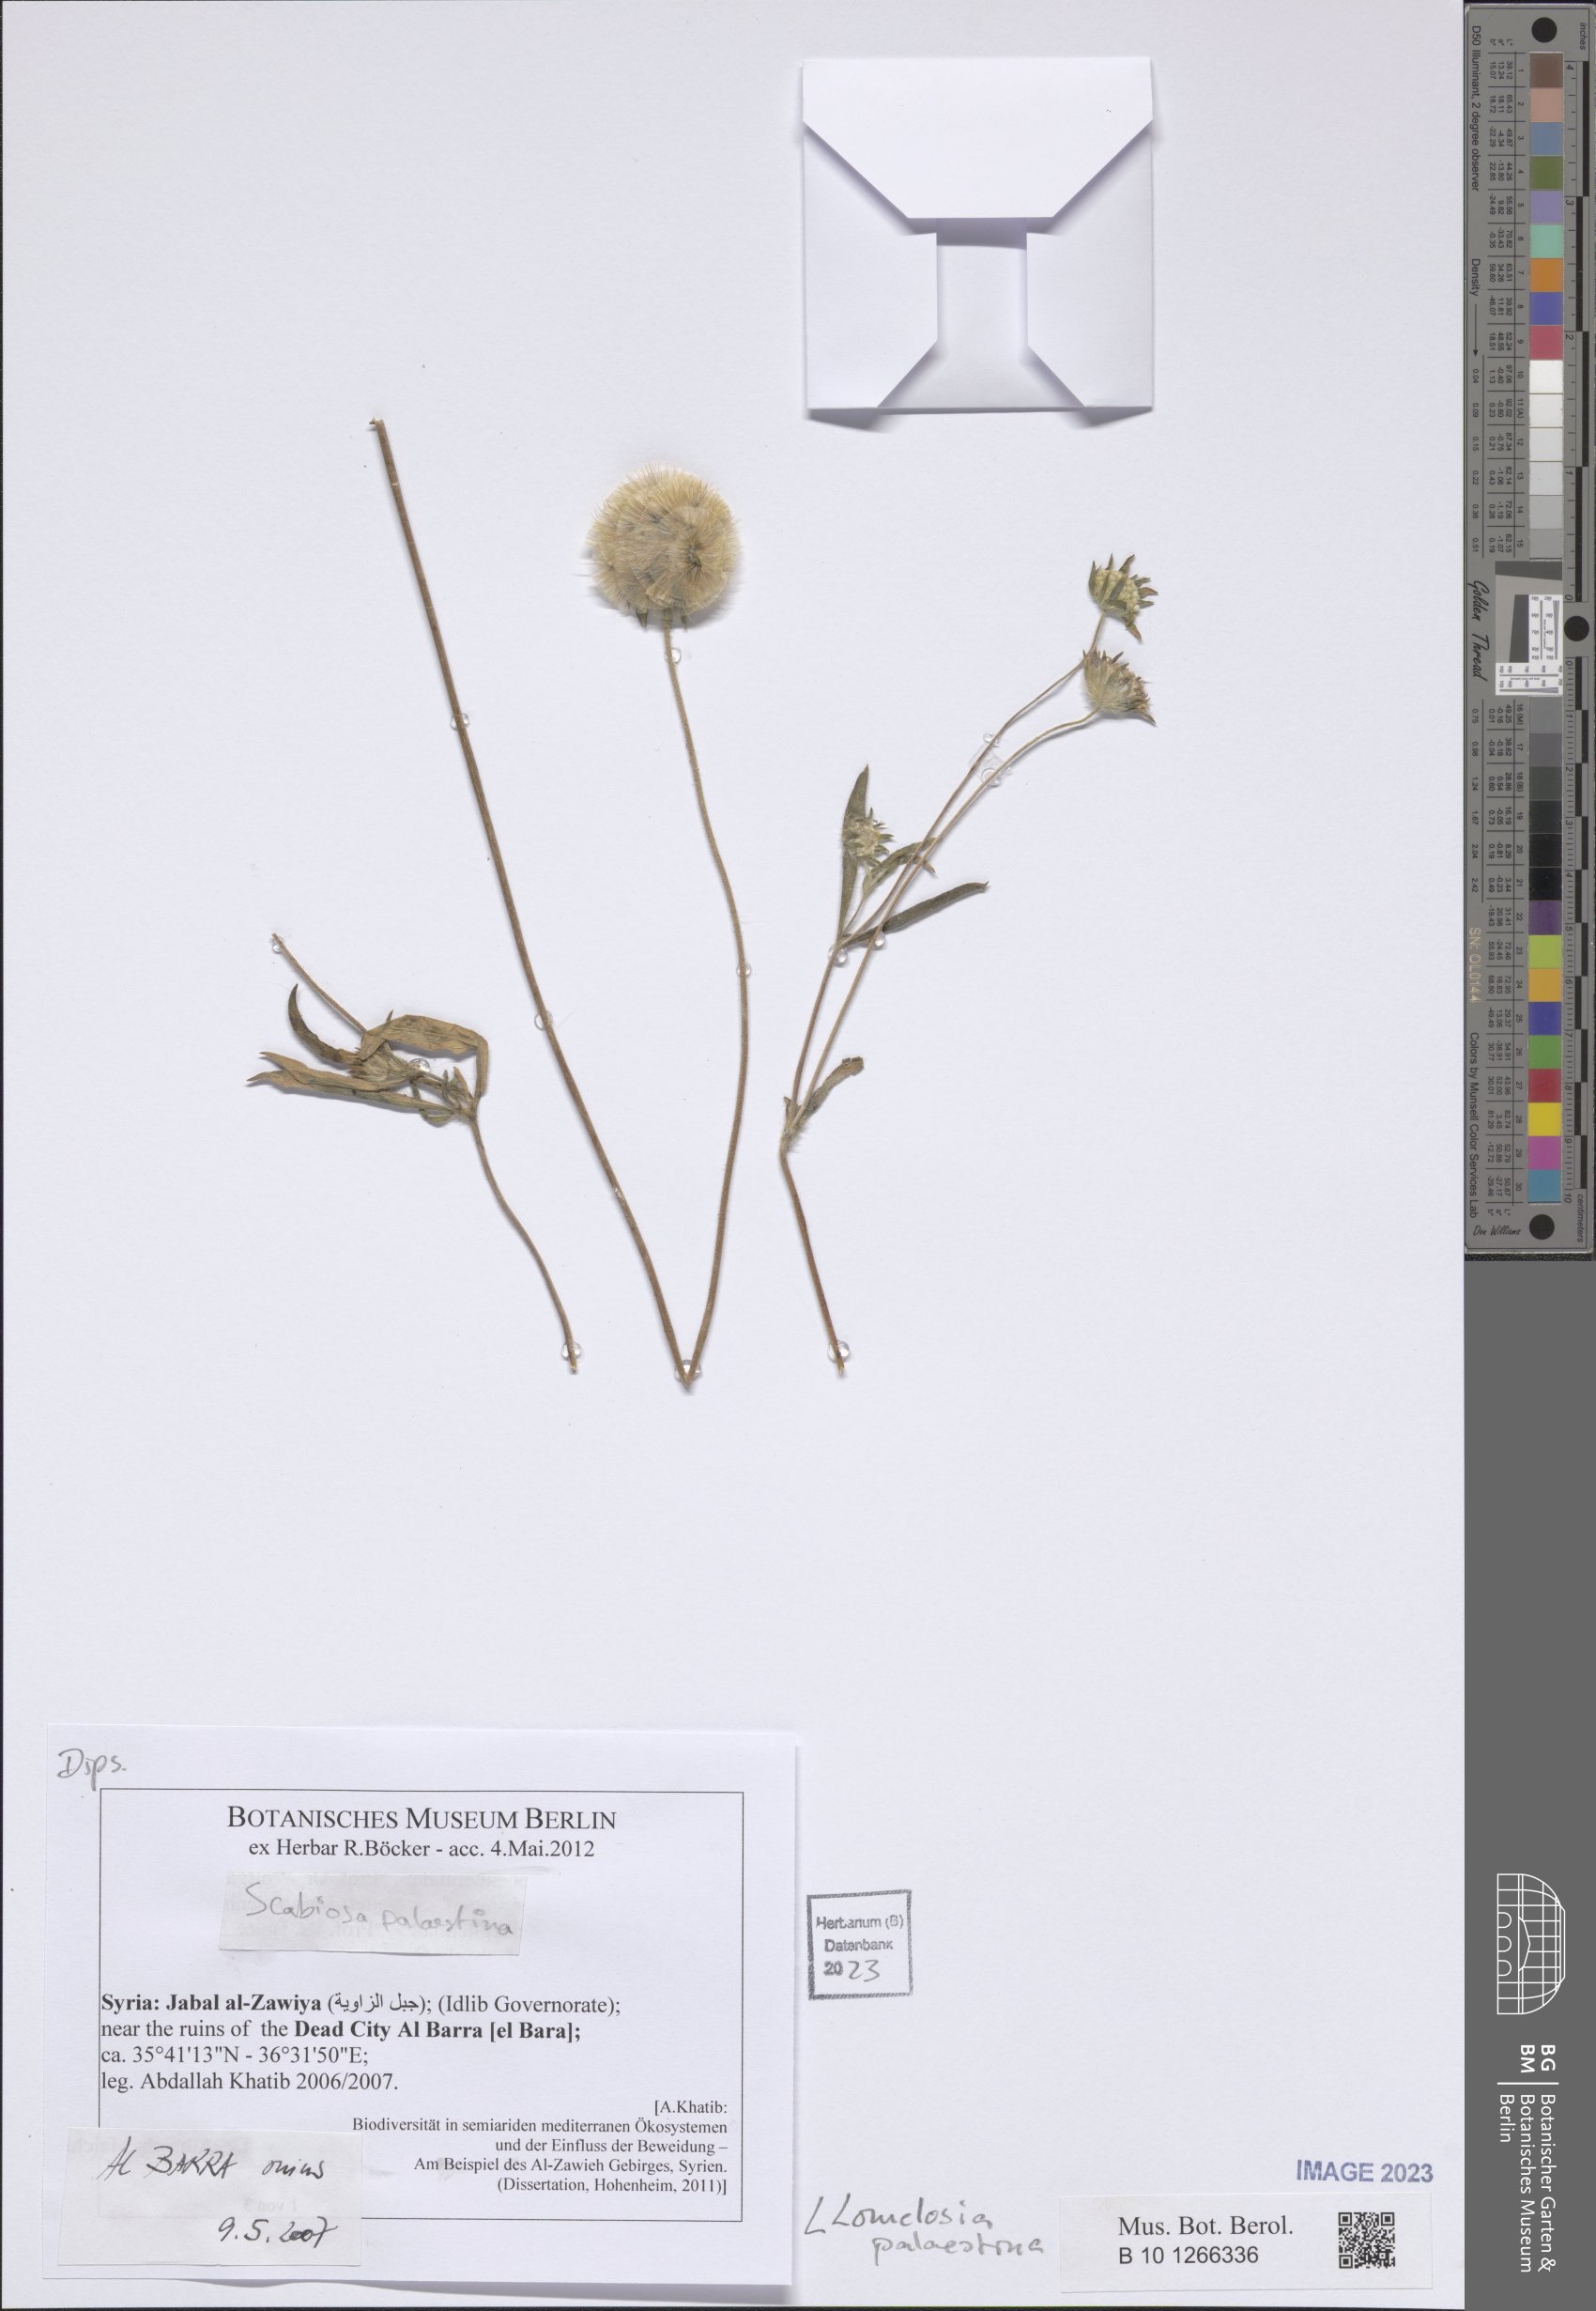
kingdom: Plantae
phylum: Tracheophyta
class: Magnoliopsida
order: Dipsacales
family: Caprifoliaceae
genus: Lomelosia
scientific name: Lomelosia palaestina
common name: Balkan pincushions
